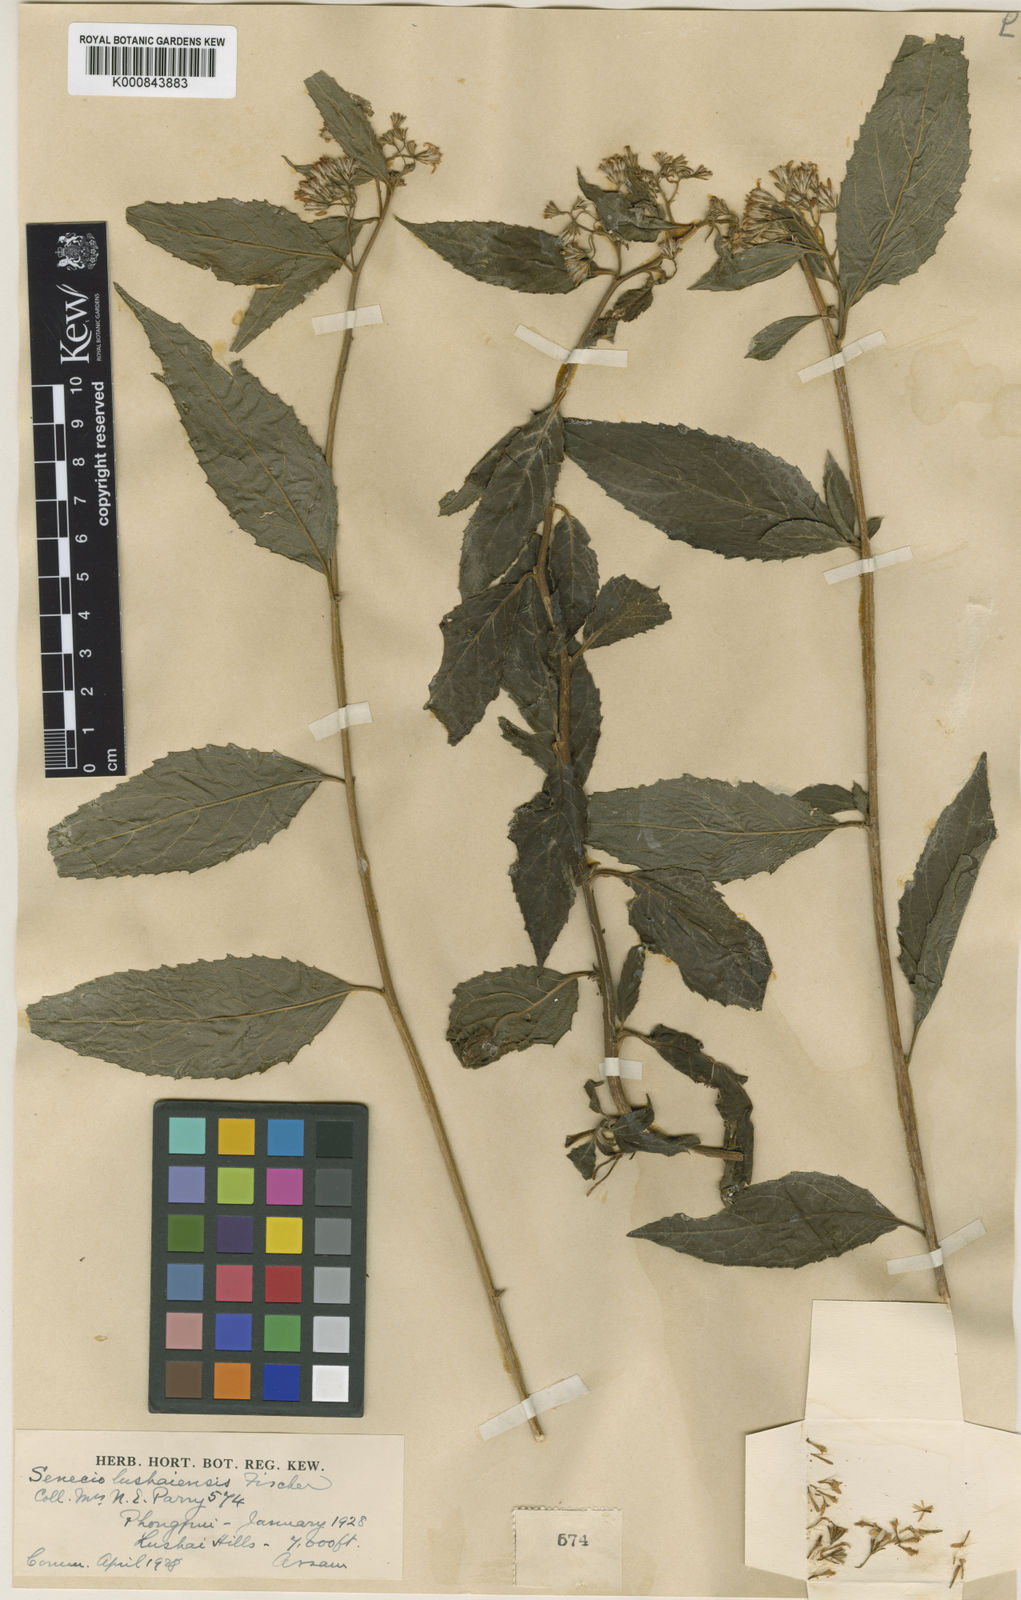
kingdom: Plantae
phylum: Tracheophyta
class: Magnoliopsida
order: Asterales
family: Asteraceae
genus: Synotis
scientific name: Synotis
